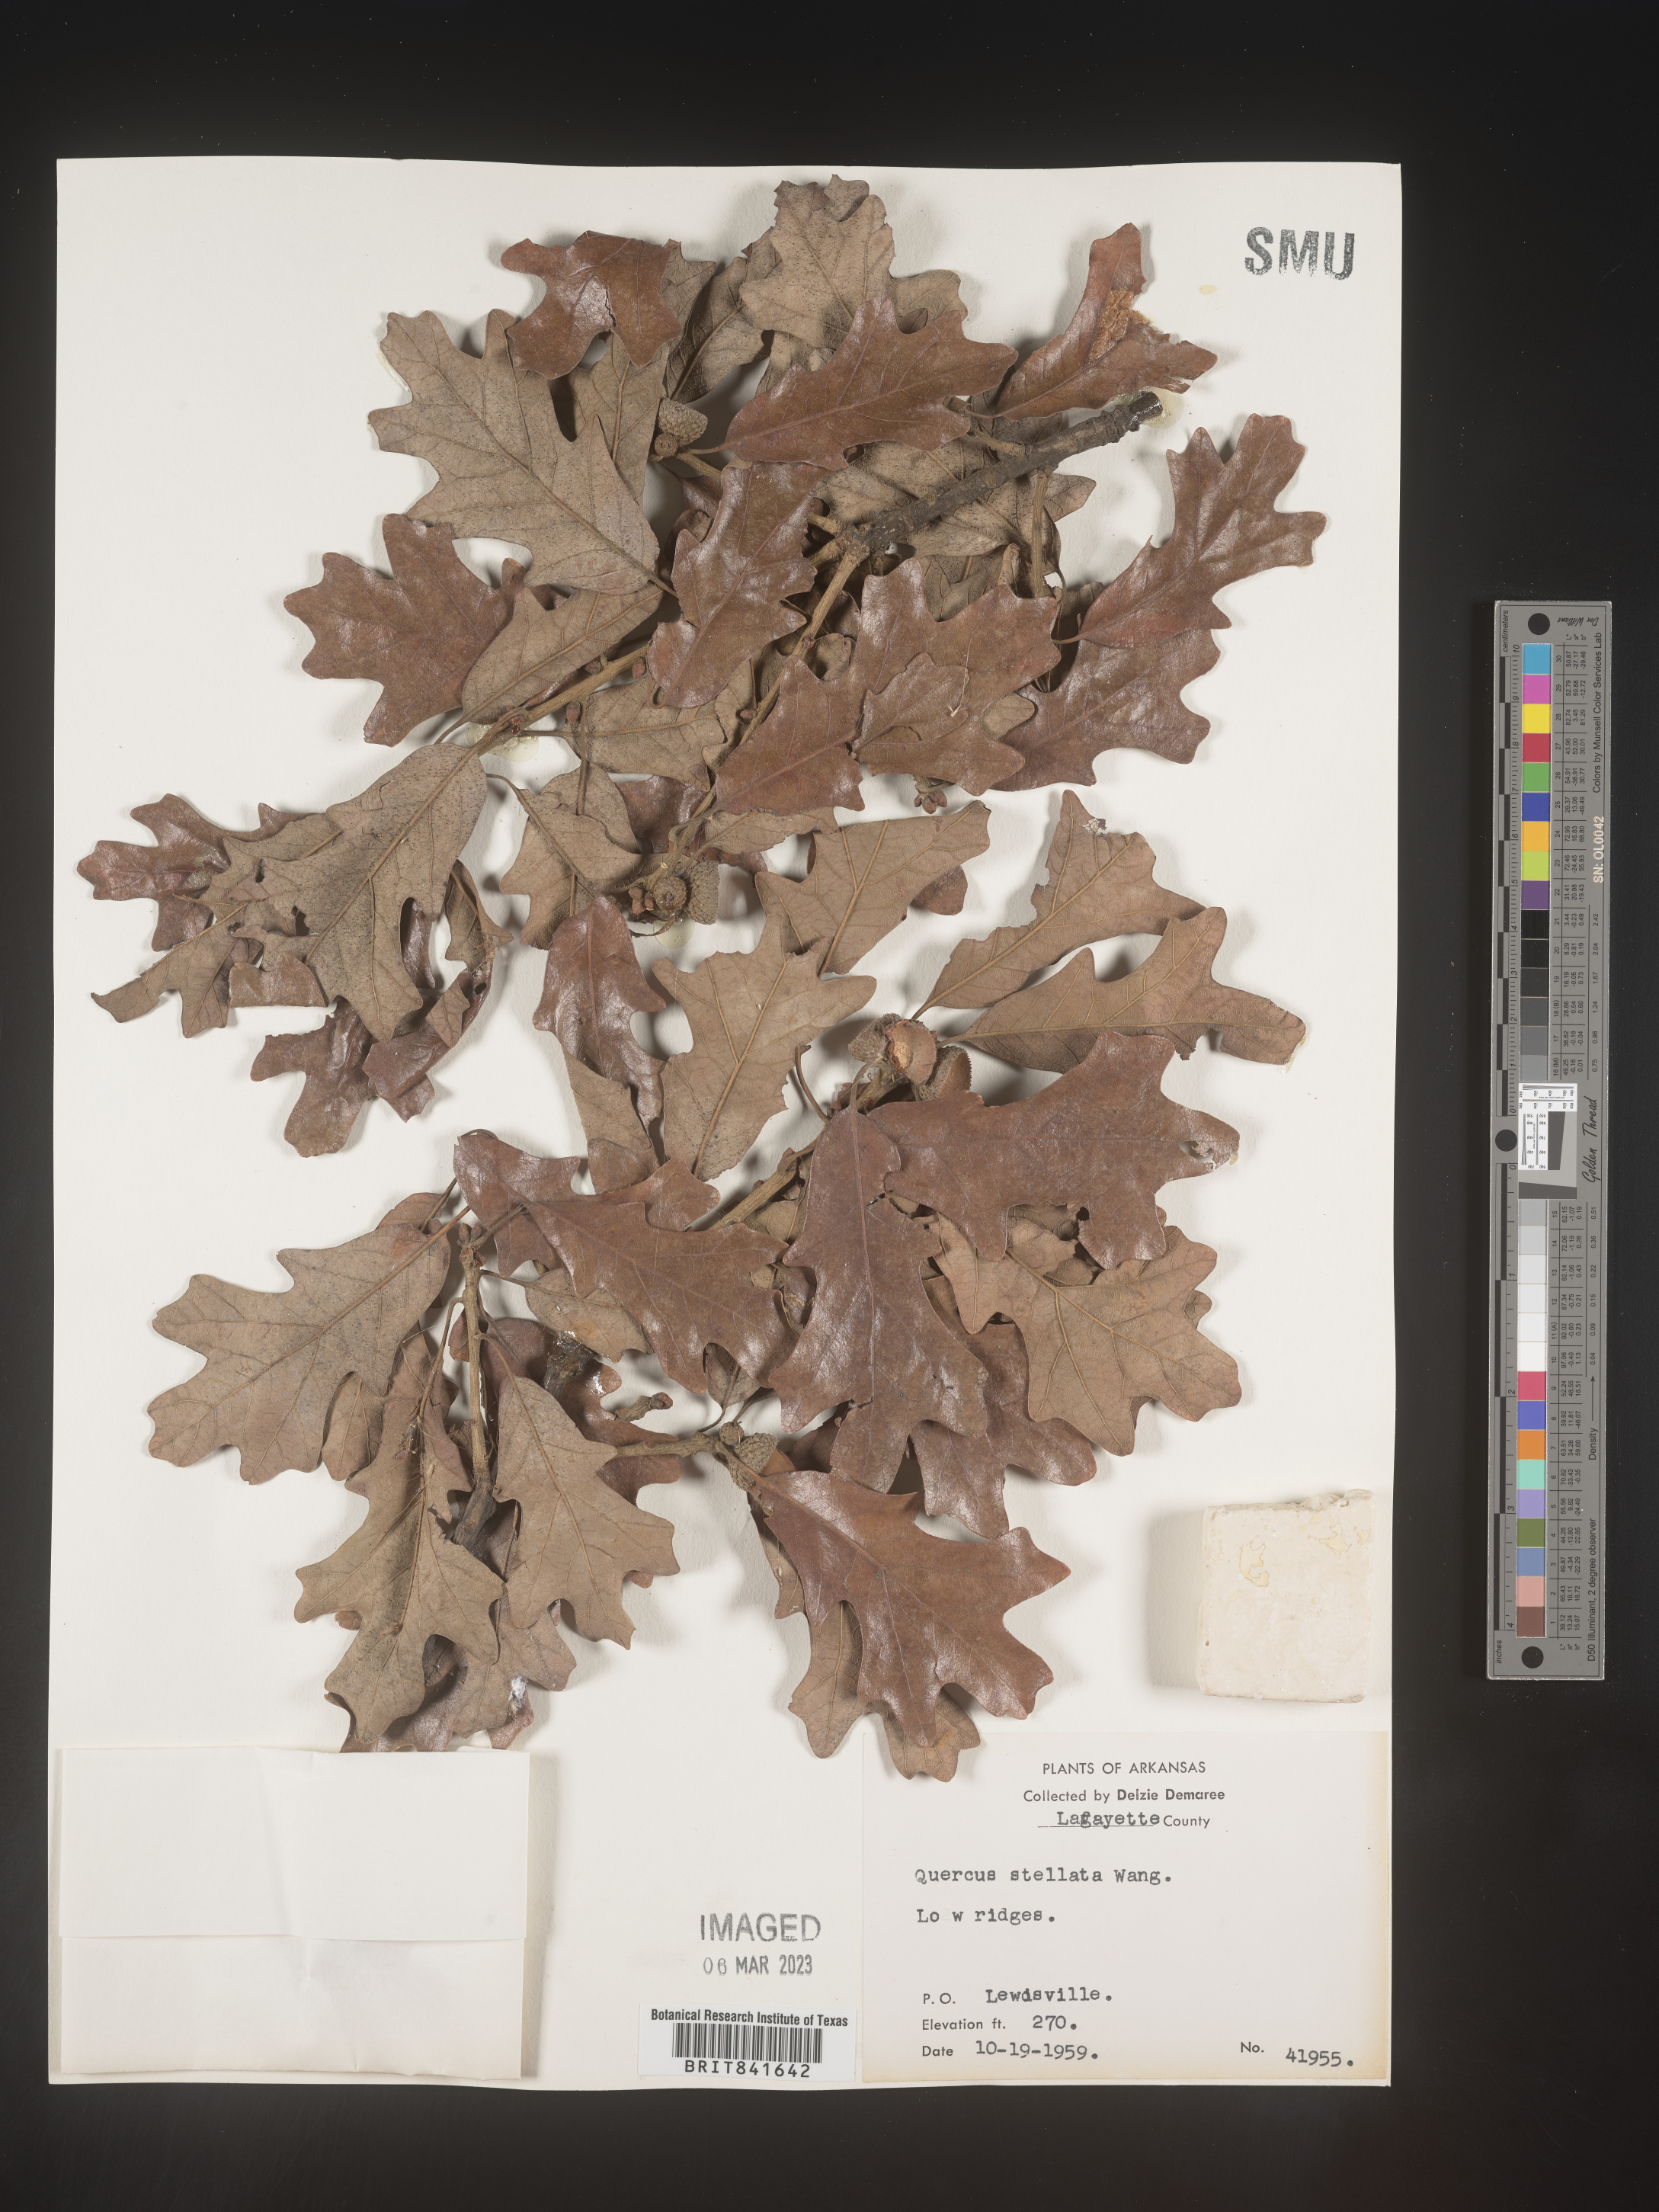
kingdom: Plantae
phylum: Tracheophyta
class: Magnoliopsida
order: Fagales
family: Fagaceae
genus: Quercus
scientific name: Quercus stellata
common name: Post oak
